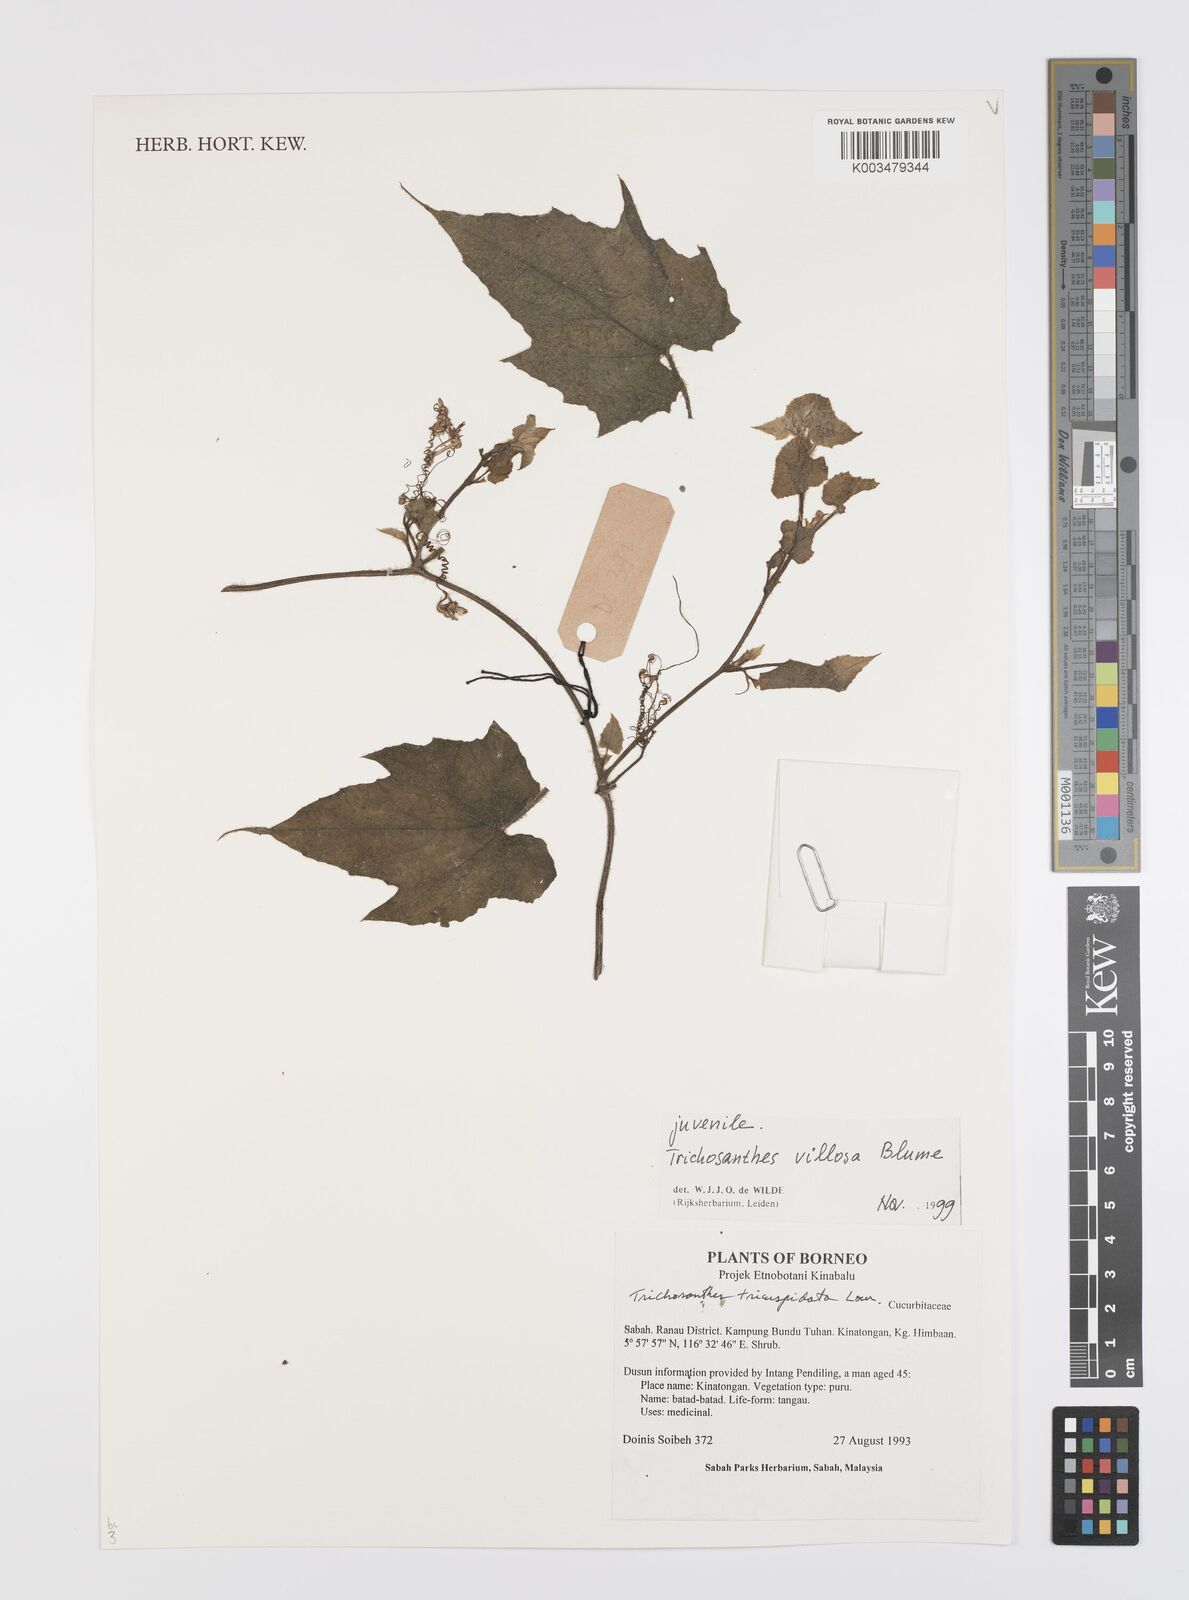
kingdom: Plantae
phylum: Tracheophyta
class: Magnoliopsida
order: Cucurbitales
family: Cucurbitaceae
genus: Trichosanthes
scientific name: Trichosanthes villosa
